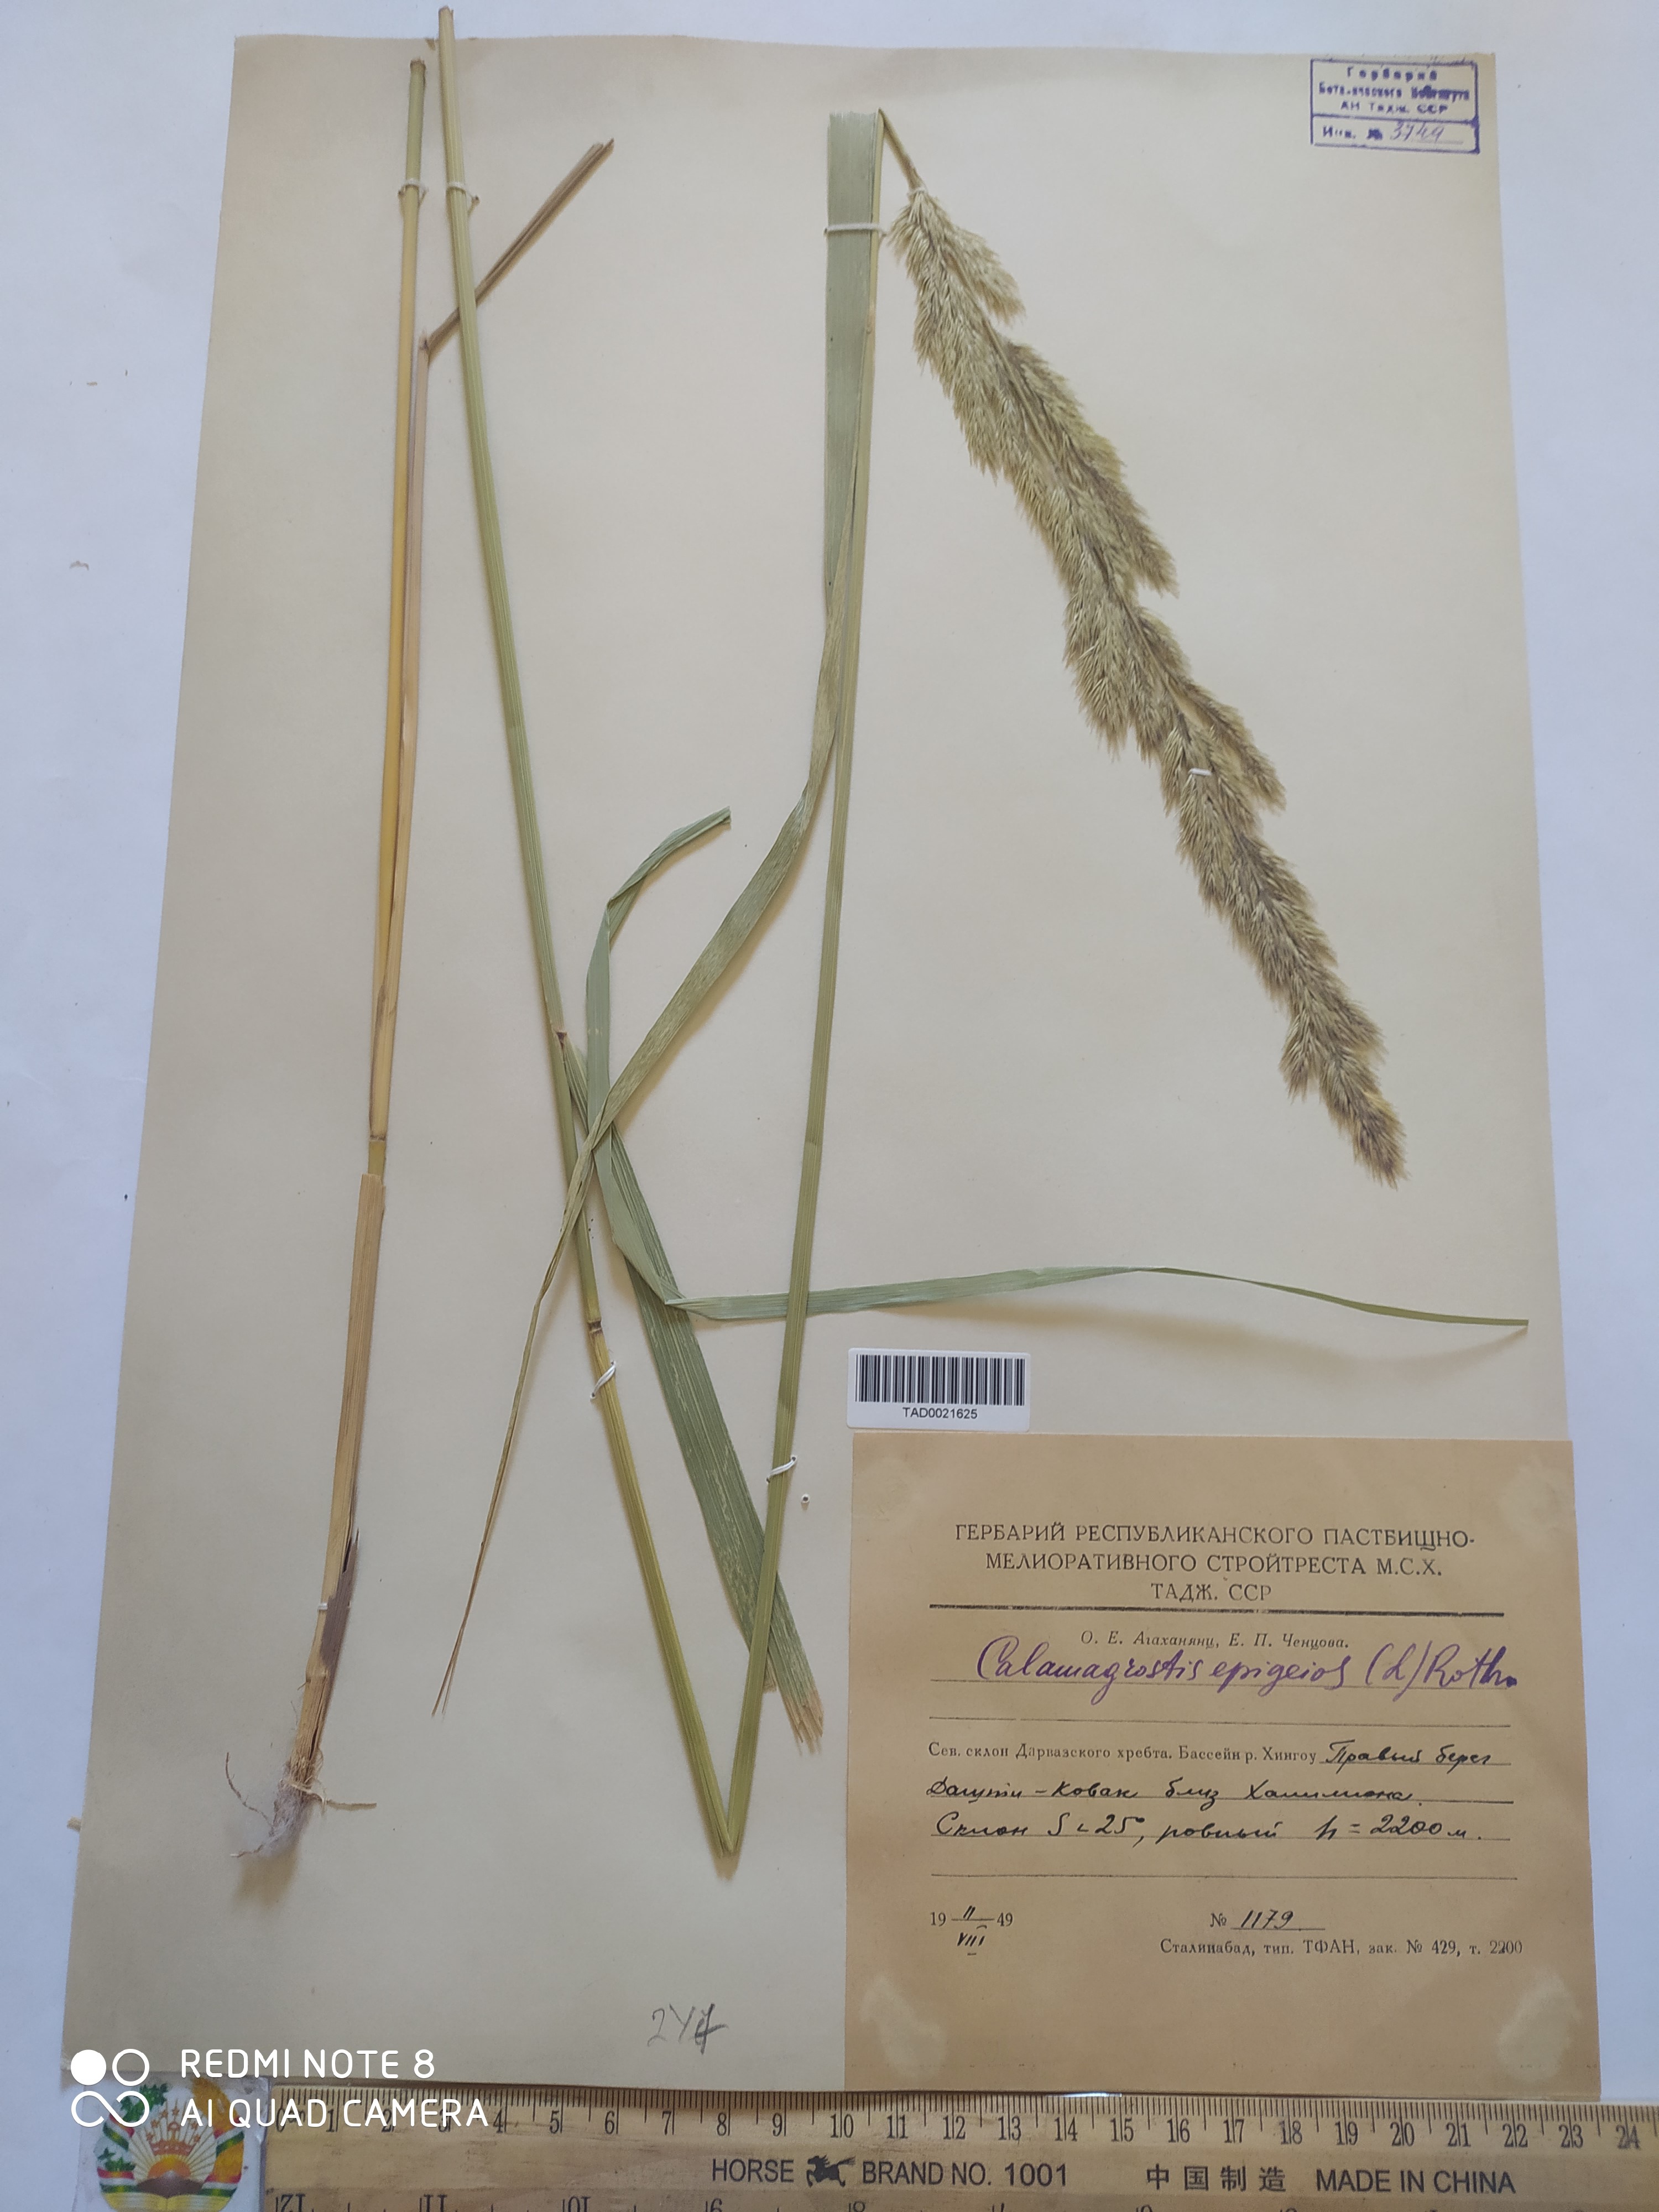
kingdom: Plantae
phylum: Tracheophyta
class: Liliopsida
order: Poales
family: Poaceae
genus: Calamagrostis
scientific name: Calamagrostis epigejos
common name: Wood small-reed
